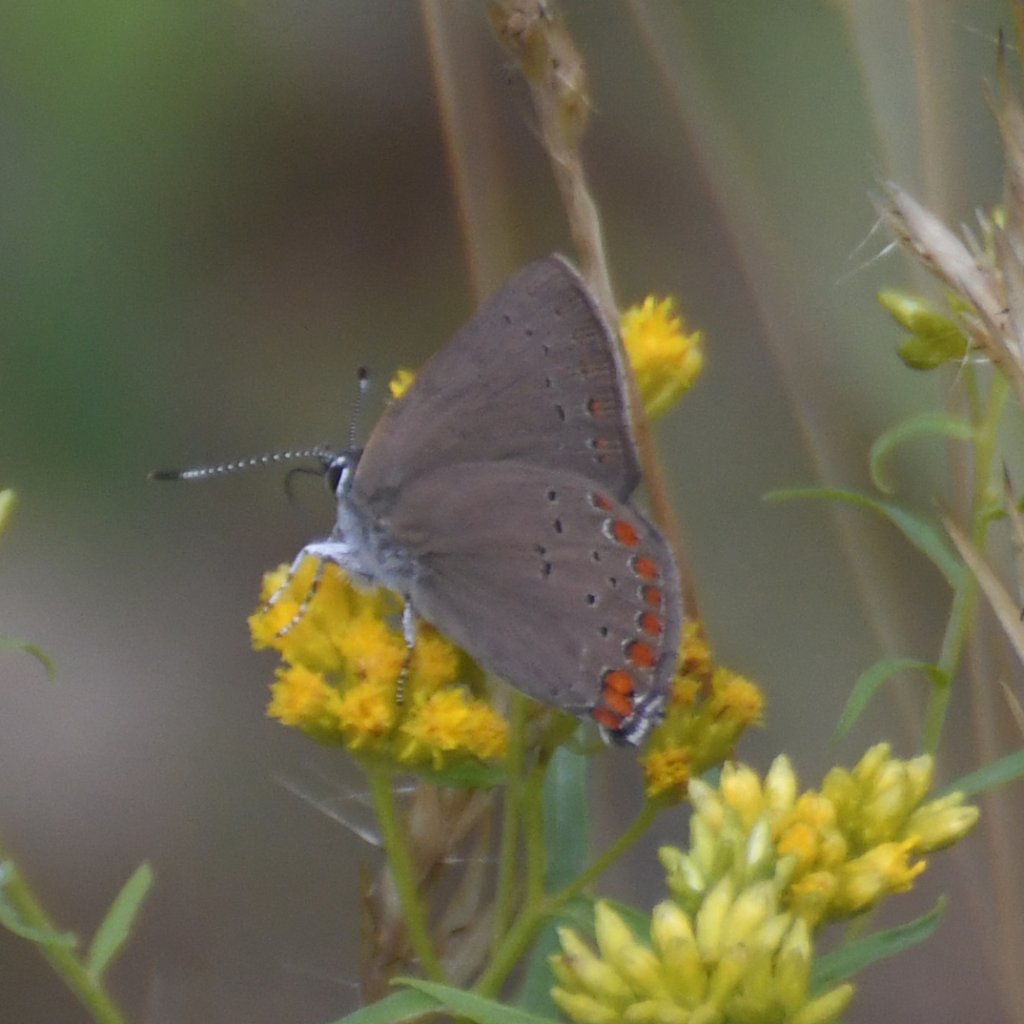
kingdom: Animalia
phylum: Arthropoda
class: Insecta
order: Lepidoptera
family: Lycaenidae
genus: Harkenclenus
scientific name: Harkenclenus titus
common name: Coral Hairstreak
